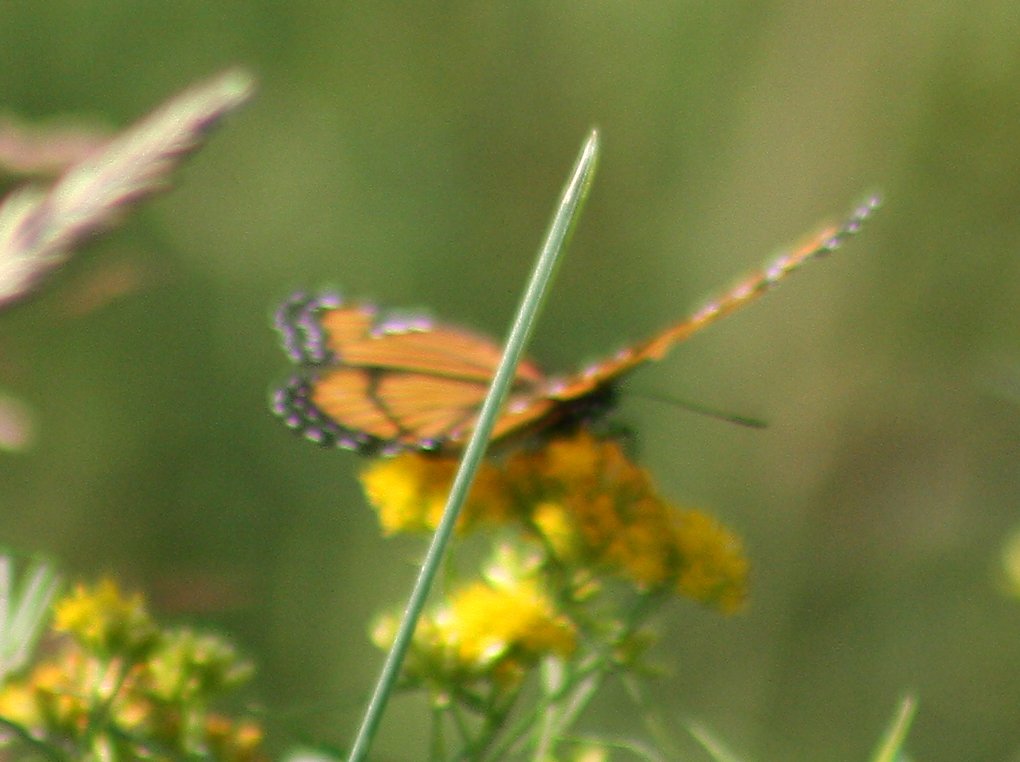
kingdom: Animalia
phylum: Arthropoda
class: Insecta
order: Lepidoptera
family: Nymphalidae
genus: Limenitis
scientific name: Limenitis archippus
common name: Viceroy
